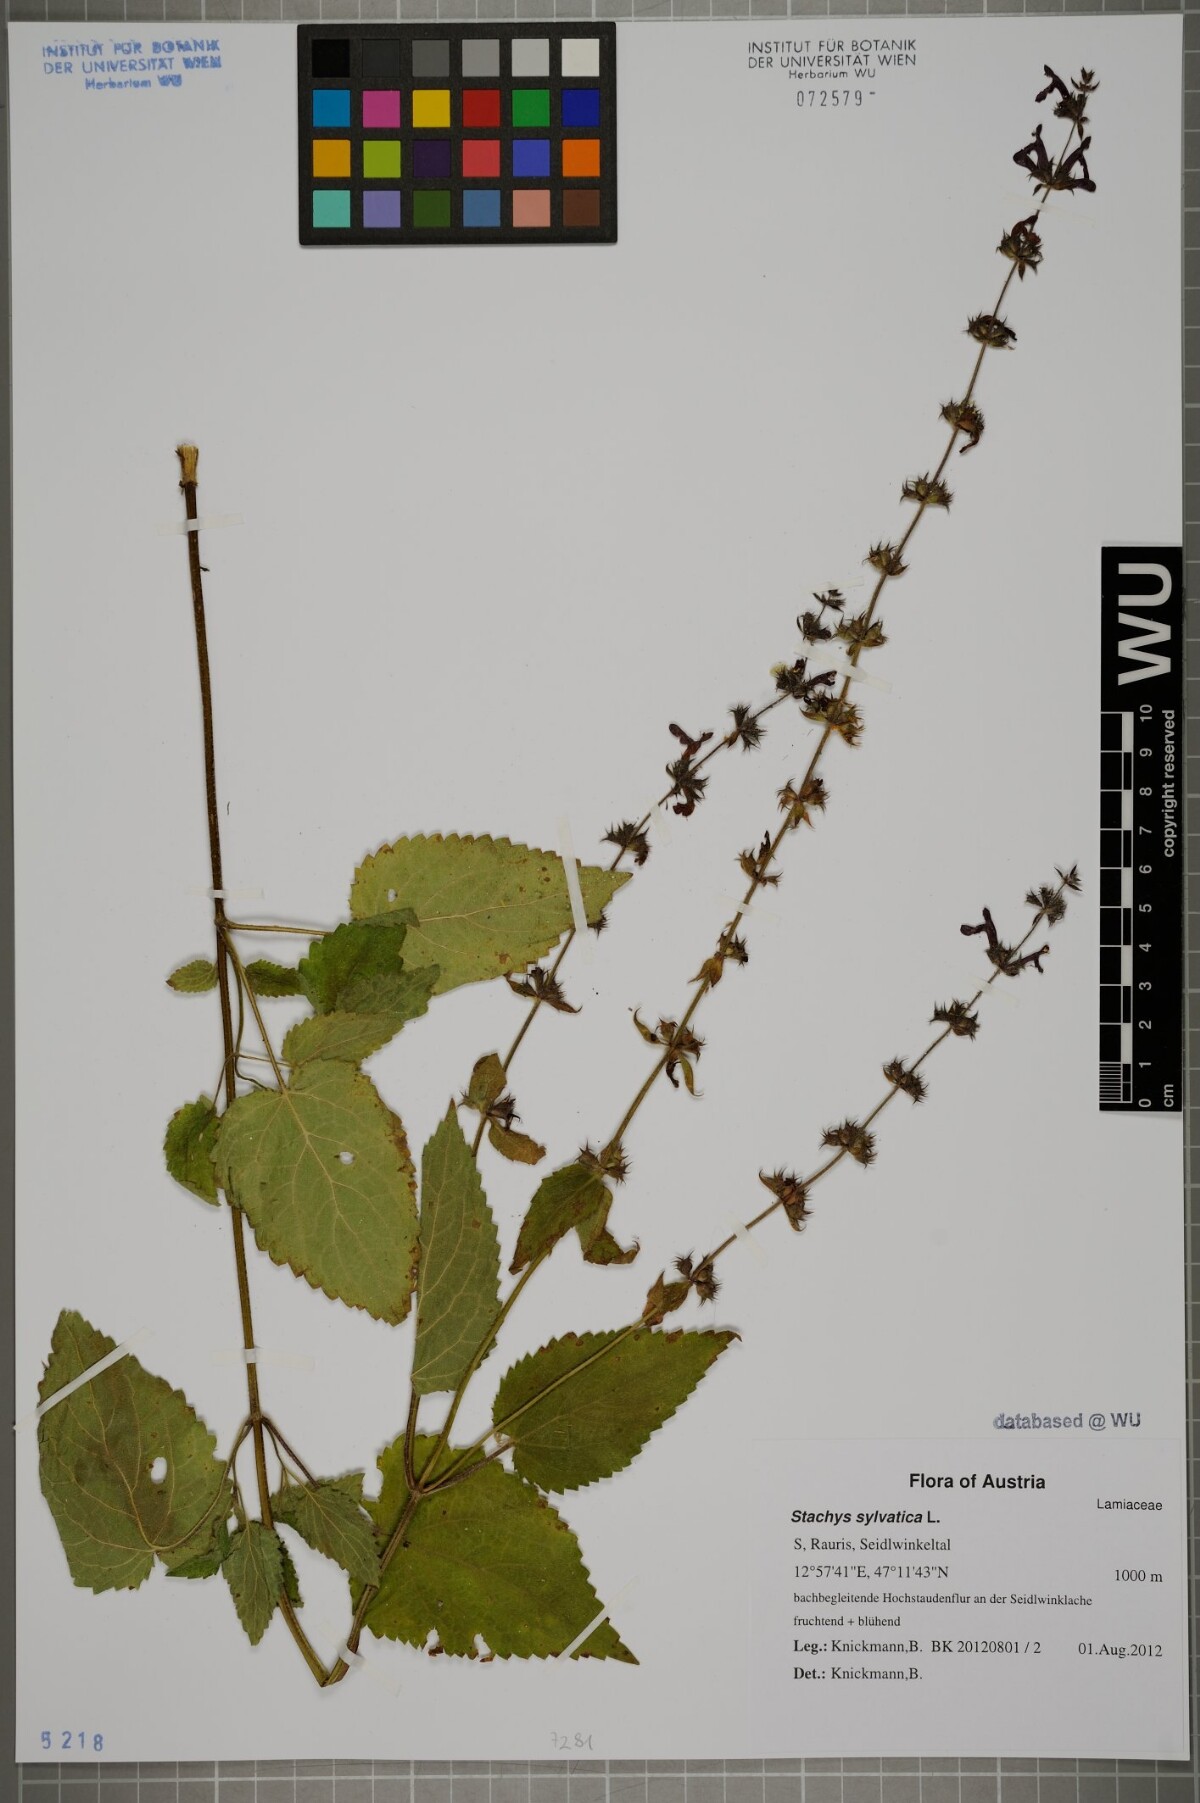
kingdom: Plantae
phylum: Tracheophyta
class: Magnoliopsida
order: Lamiales
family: Lamiaceae
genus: Stachys
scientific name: Stachys sylvatica
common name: Hedge woundwort
